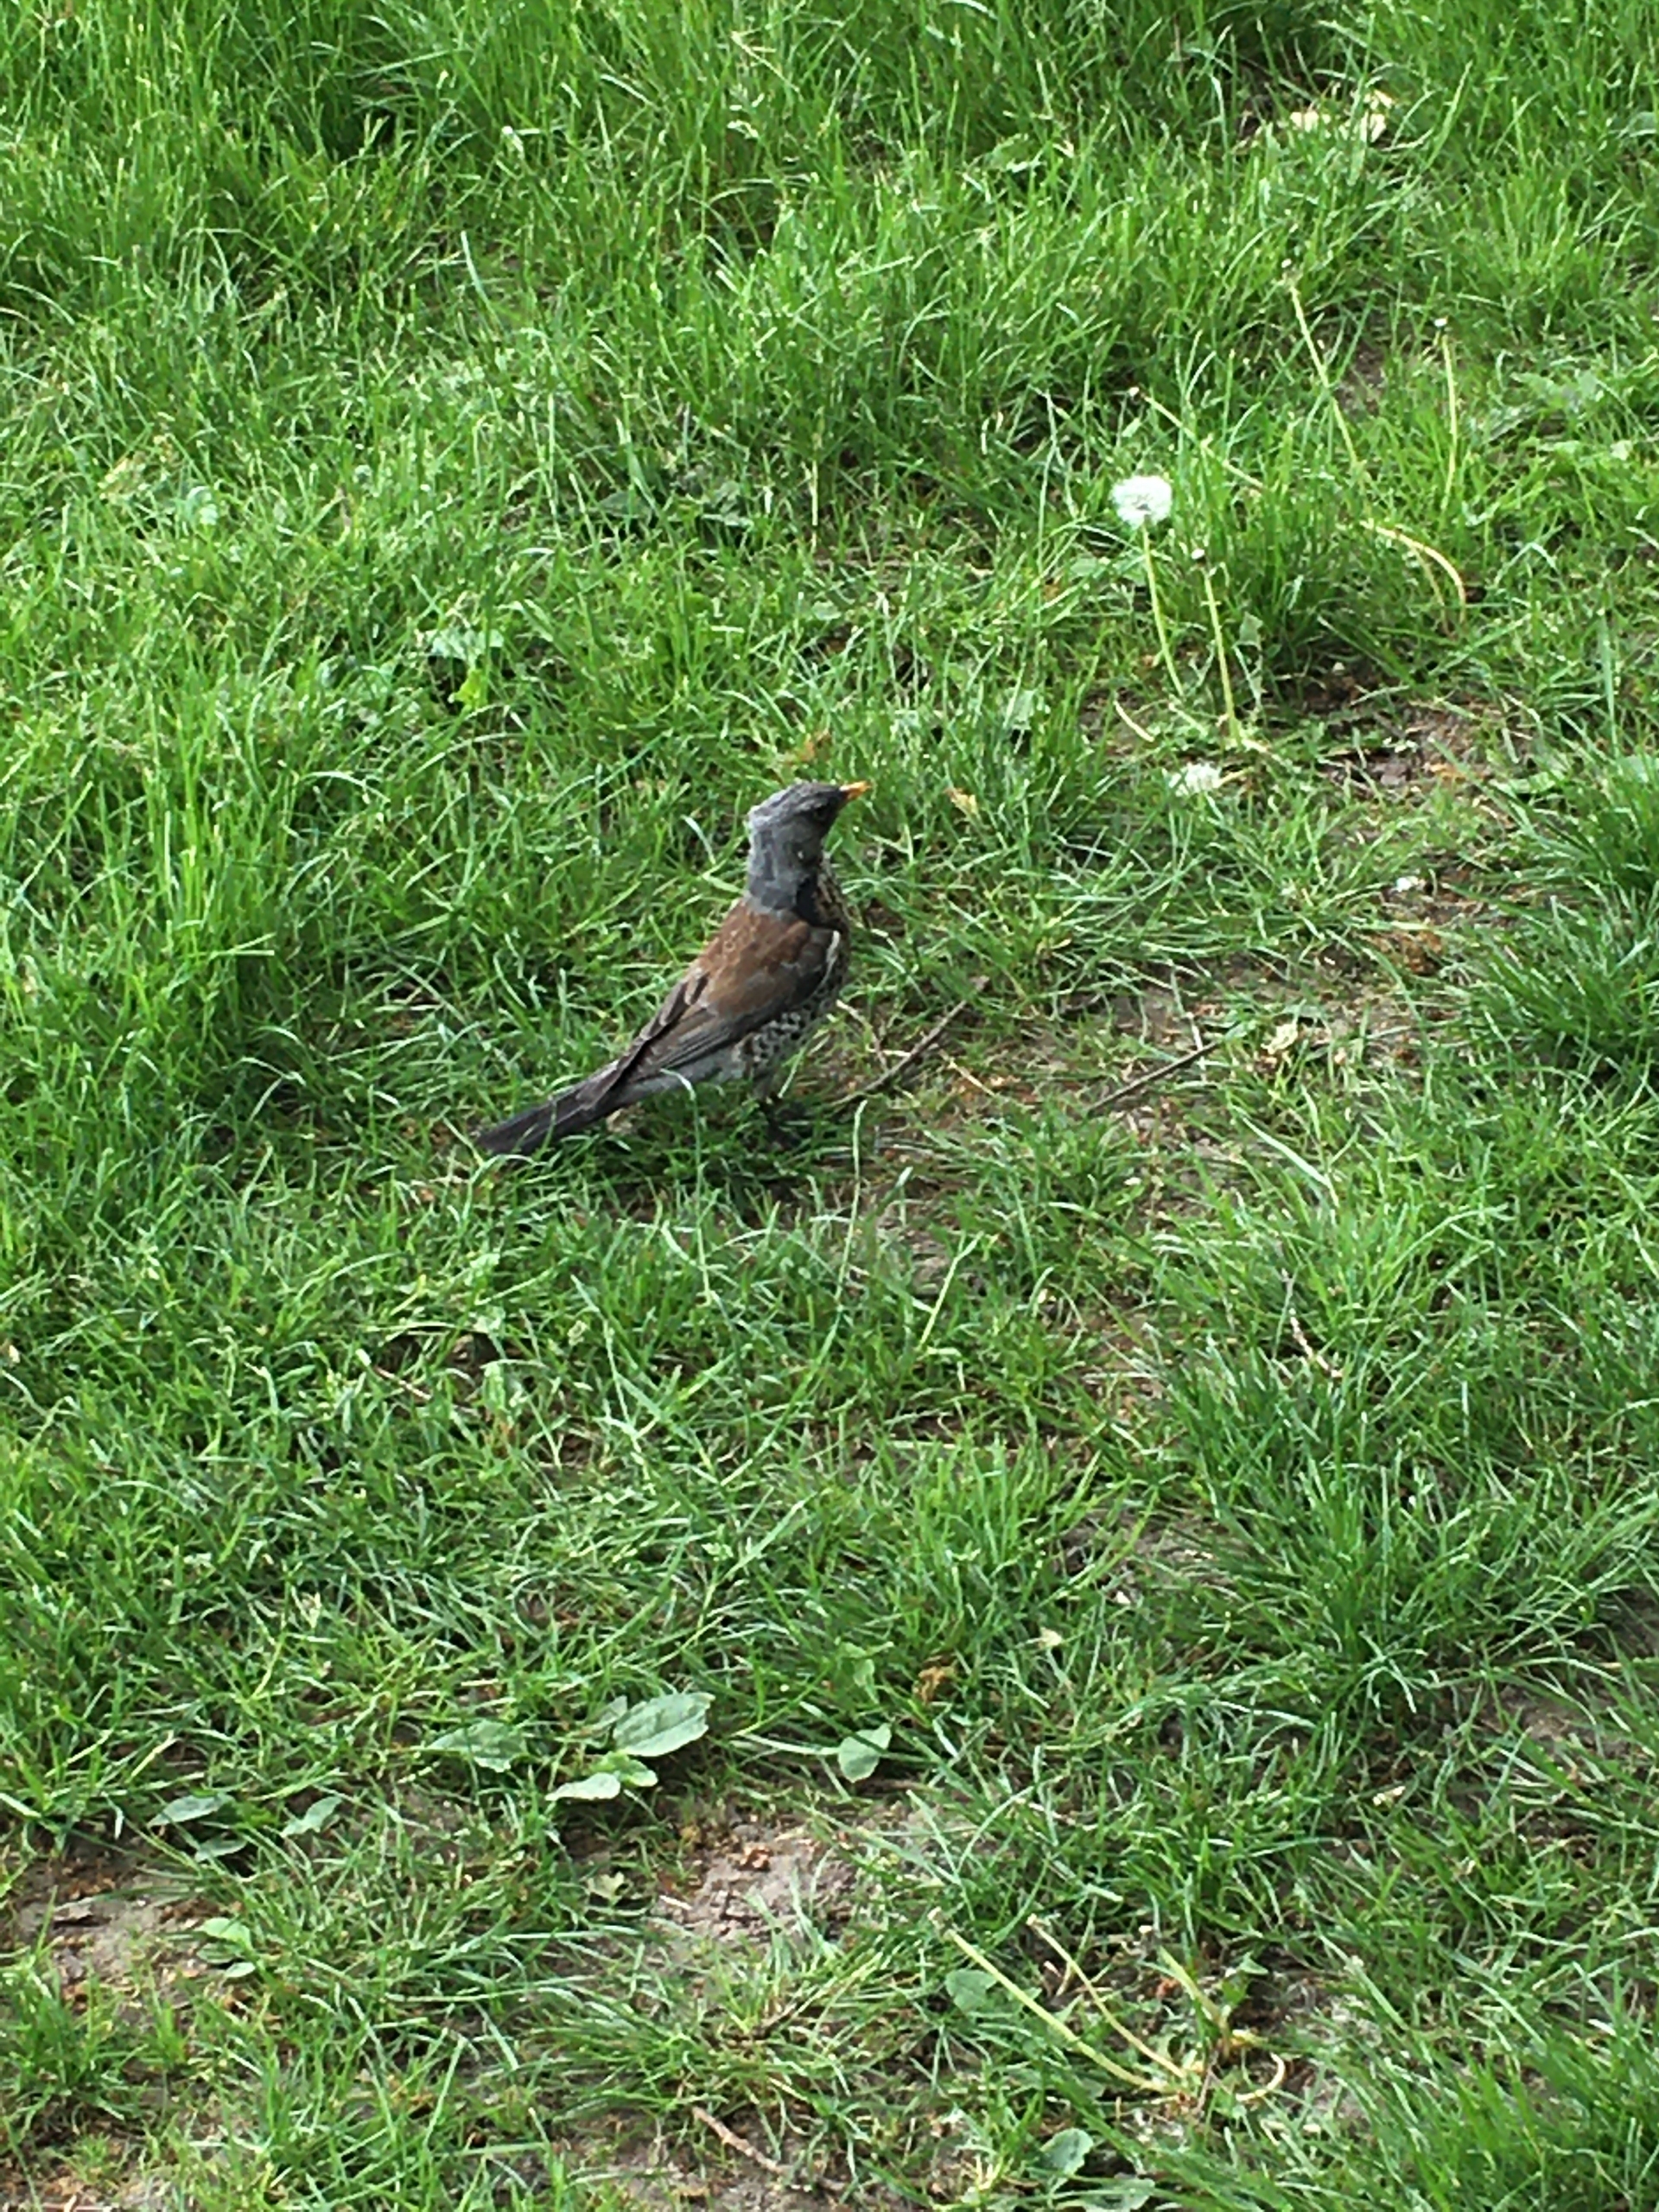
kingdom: Animalia
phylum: Chordata
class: Aves
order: Passeriformes
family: Turdidae
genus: Turdus
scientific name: Turdus pilaris
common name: Sjagger
